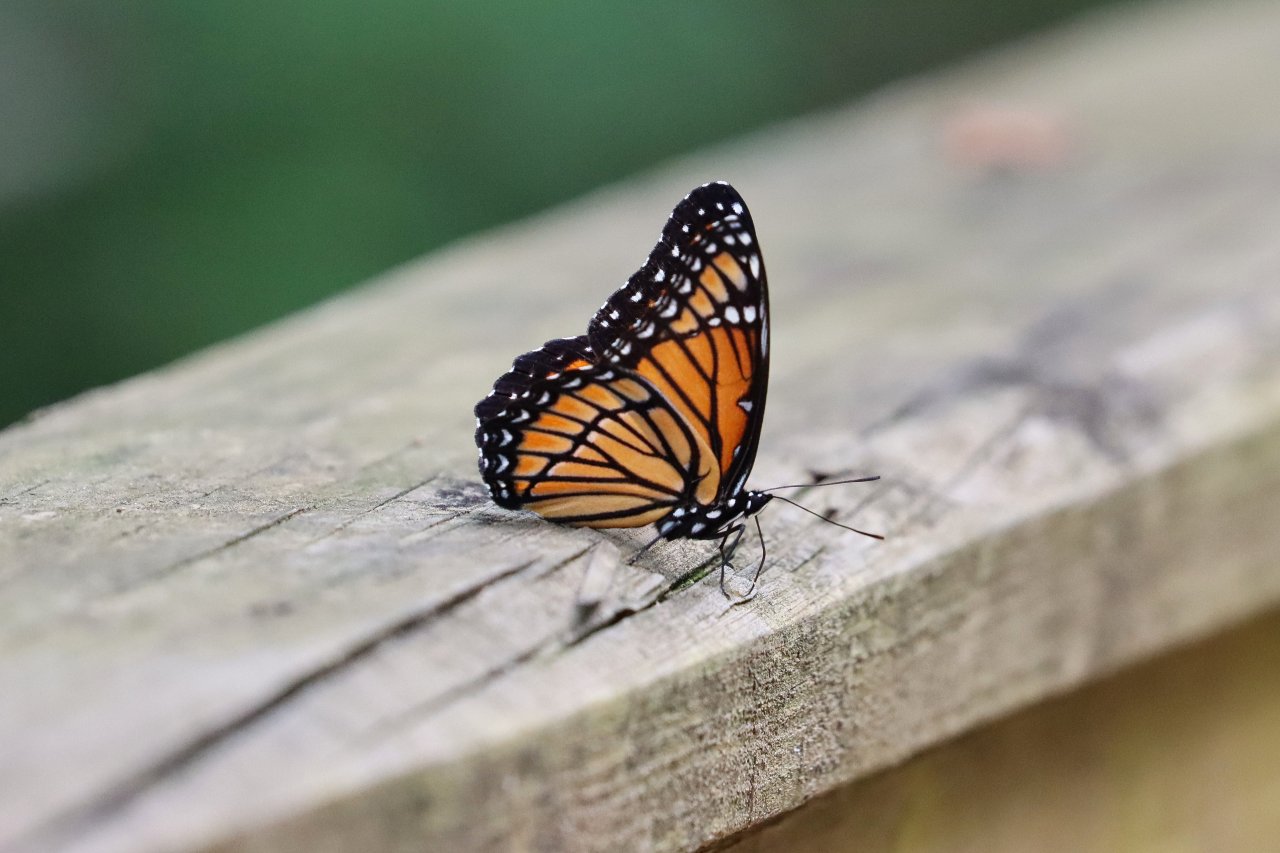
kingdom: Animalia
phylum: Arthropoda
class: Insecta
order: Lepidoptera
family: Nymphalidae
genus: Limenitis
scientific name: Limenitis archippus
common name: Viceroy
